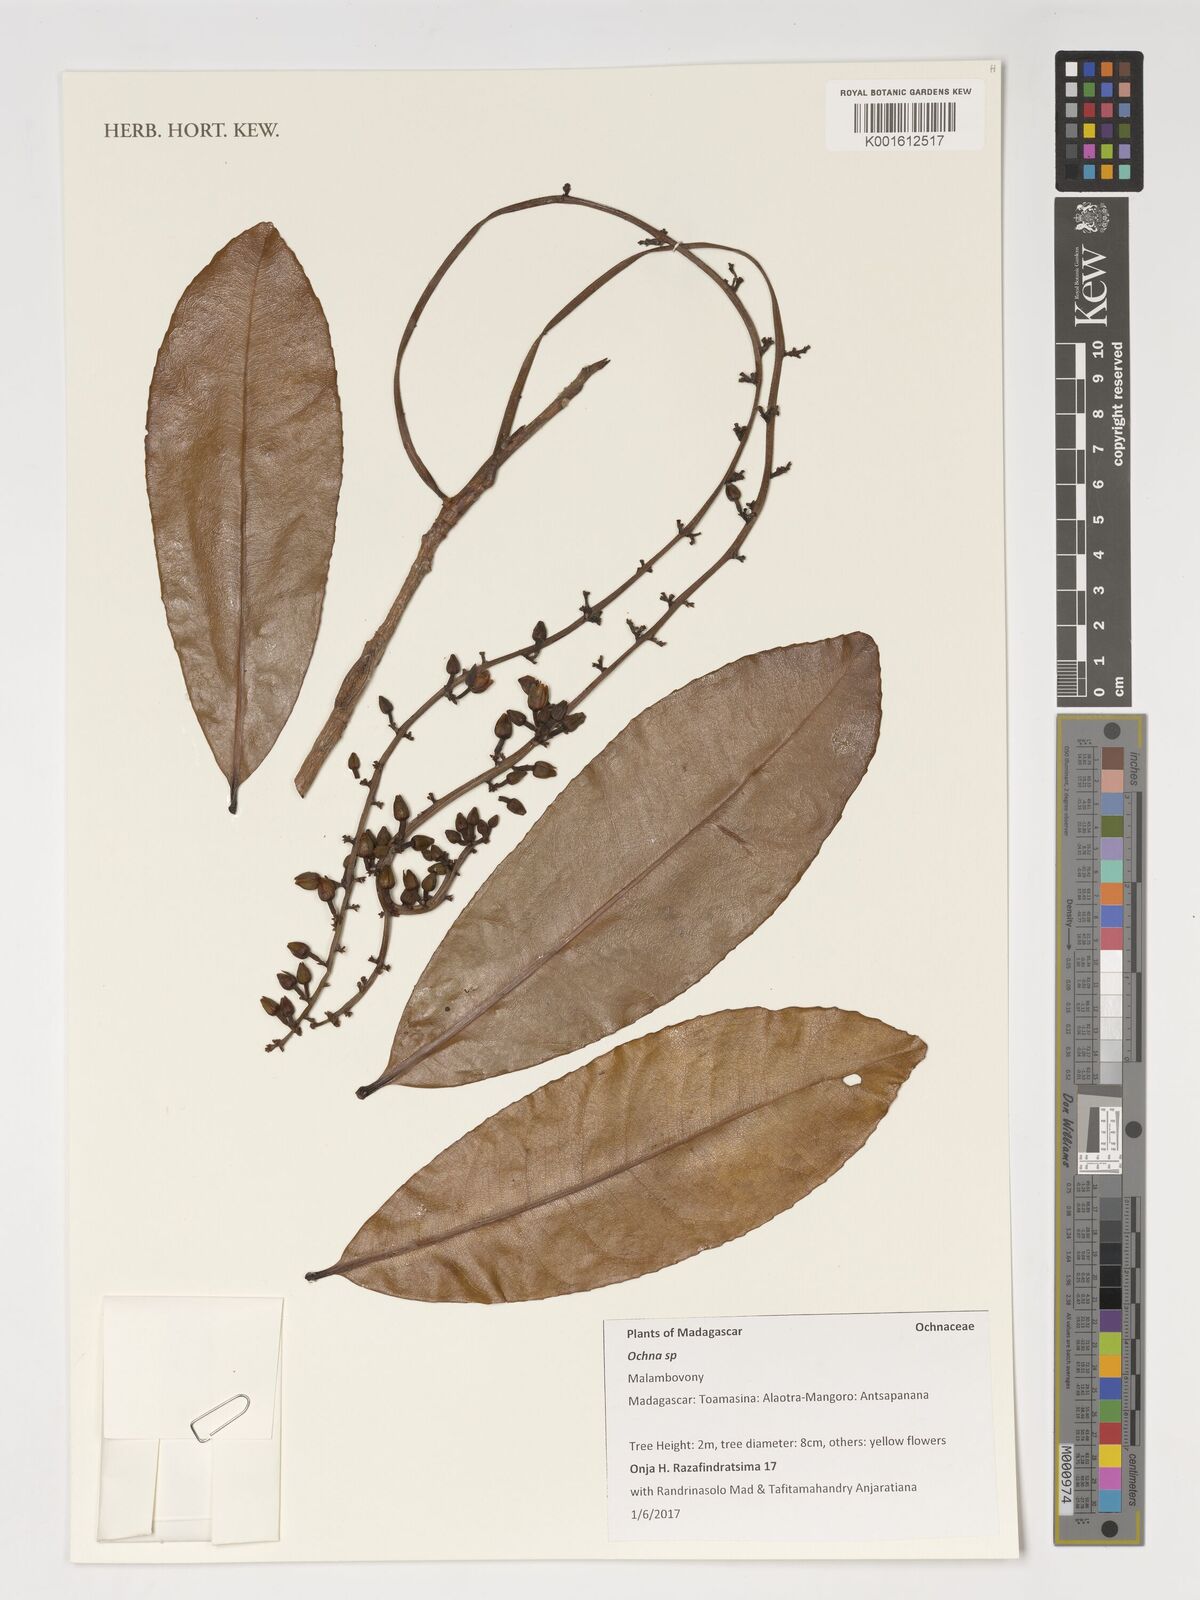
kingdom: Plantae
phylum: Tracheophyta
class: Magnoliopsida
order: Malpighiales
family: Ochnaceae
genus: Ochna
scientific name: Ochna
